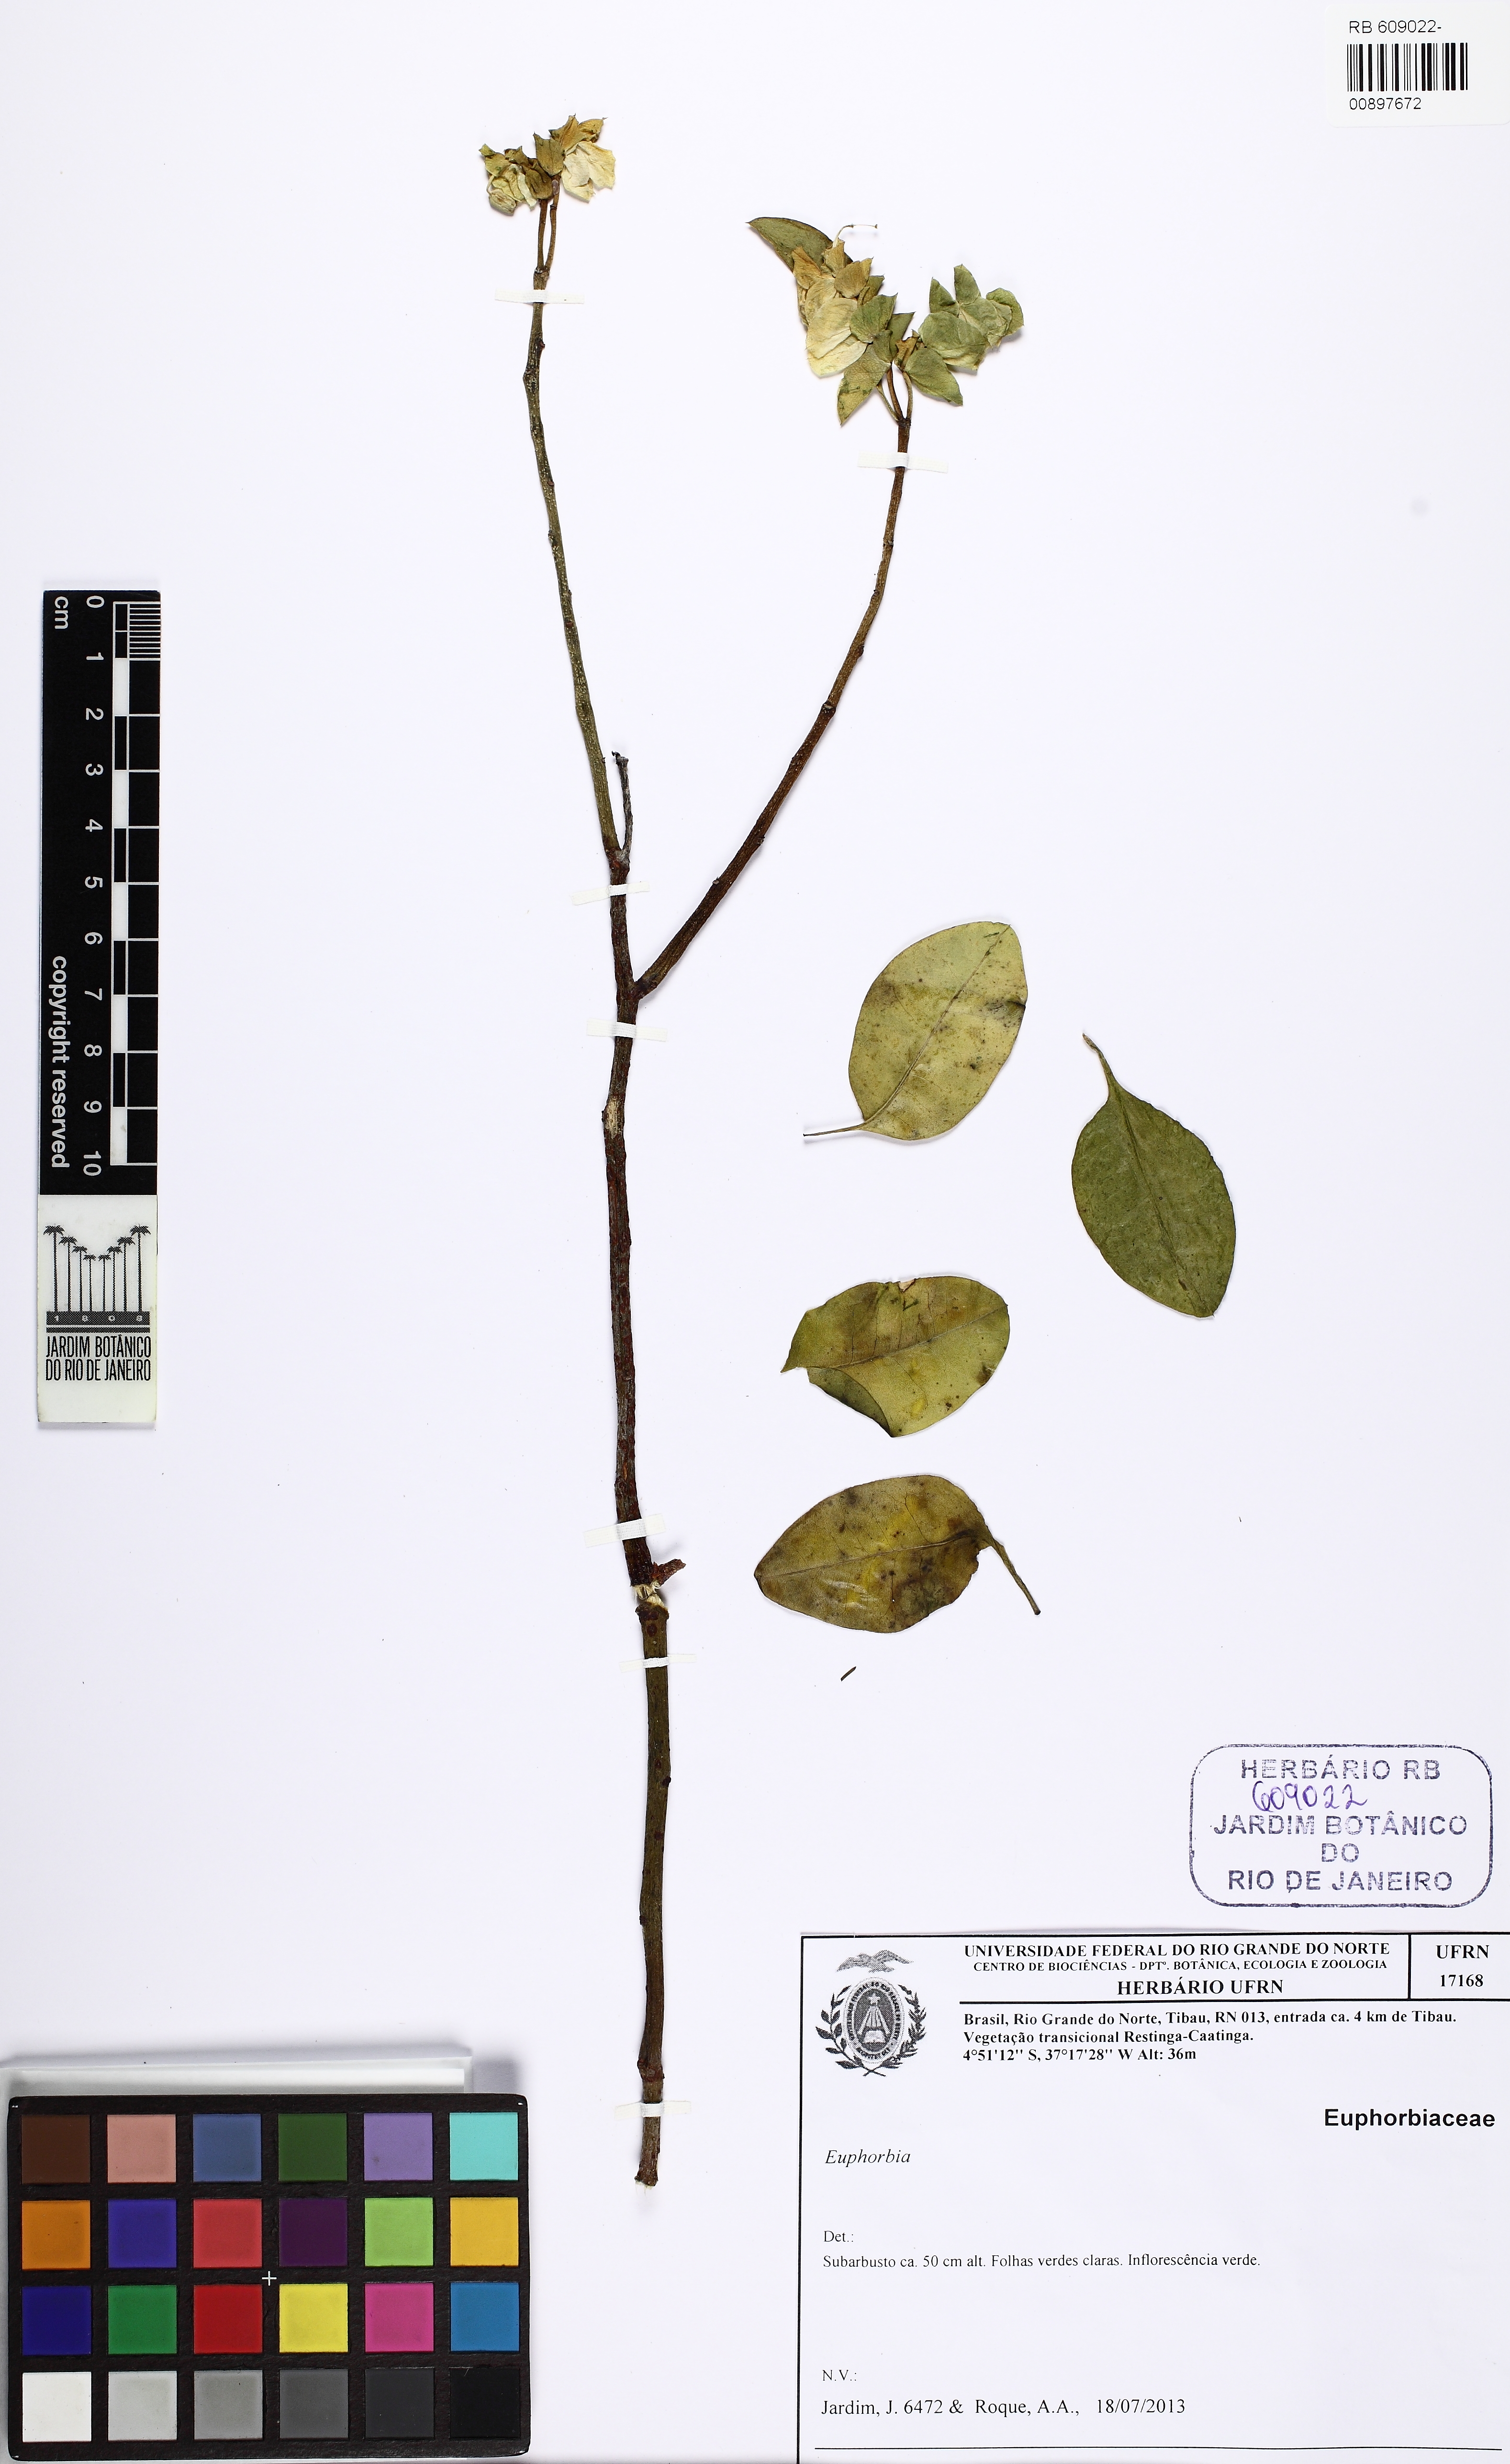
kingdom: Plantae
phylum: Tracheophyta
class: Magnoliopsida
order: Malpighiales
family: Euphorbiaceae
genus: Euphorbia
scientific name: Euphorbia heterodoxa
